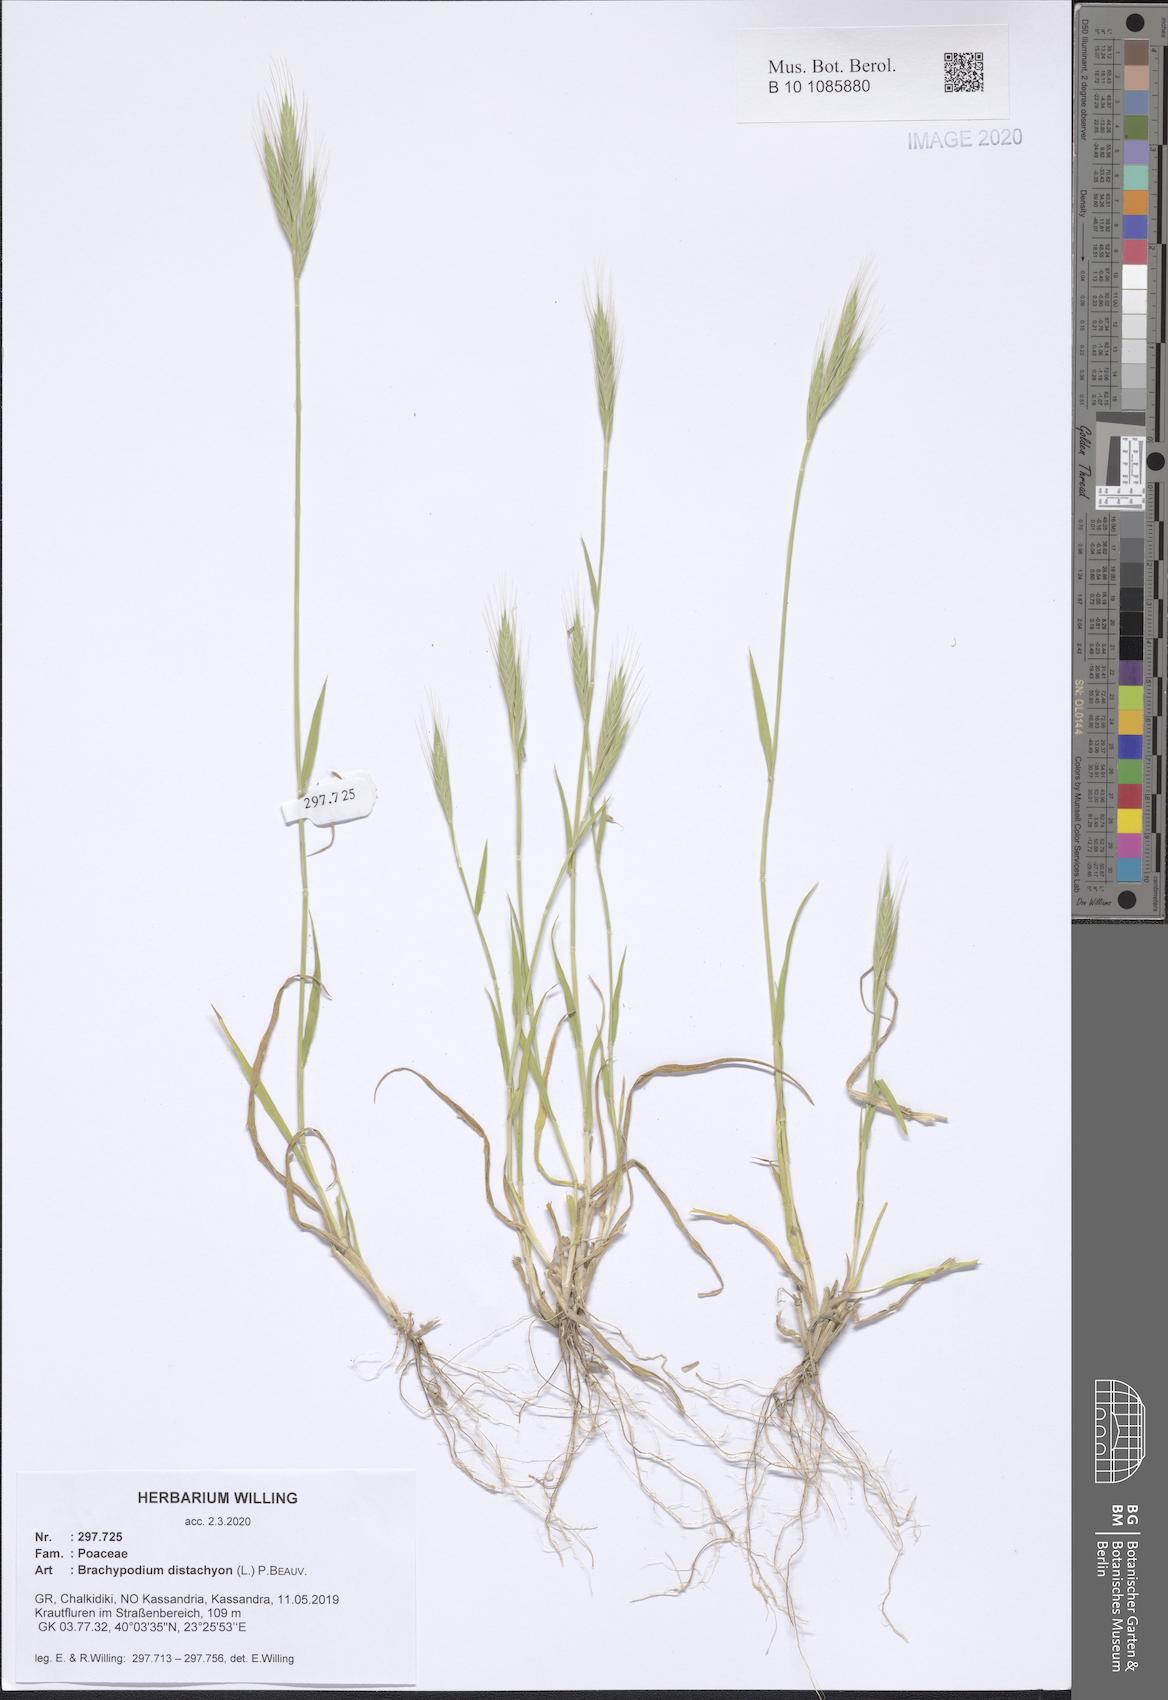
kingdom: Plantae
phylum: Tracheophyta
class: Liliopsida
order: Poales
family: Poaceae
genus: Brachypodium
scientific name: Brachypodium distachyon
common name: Stiff brome
